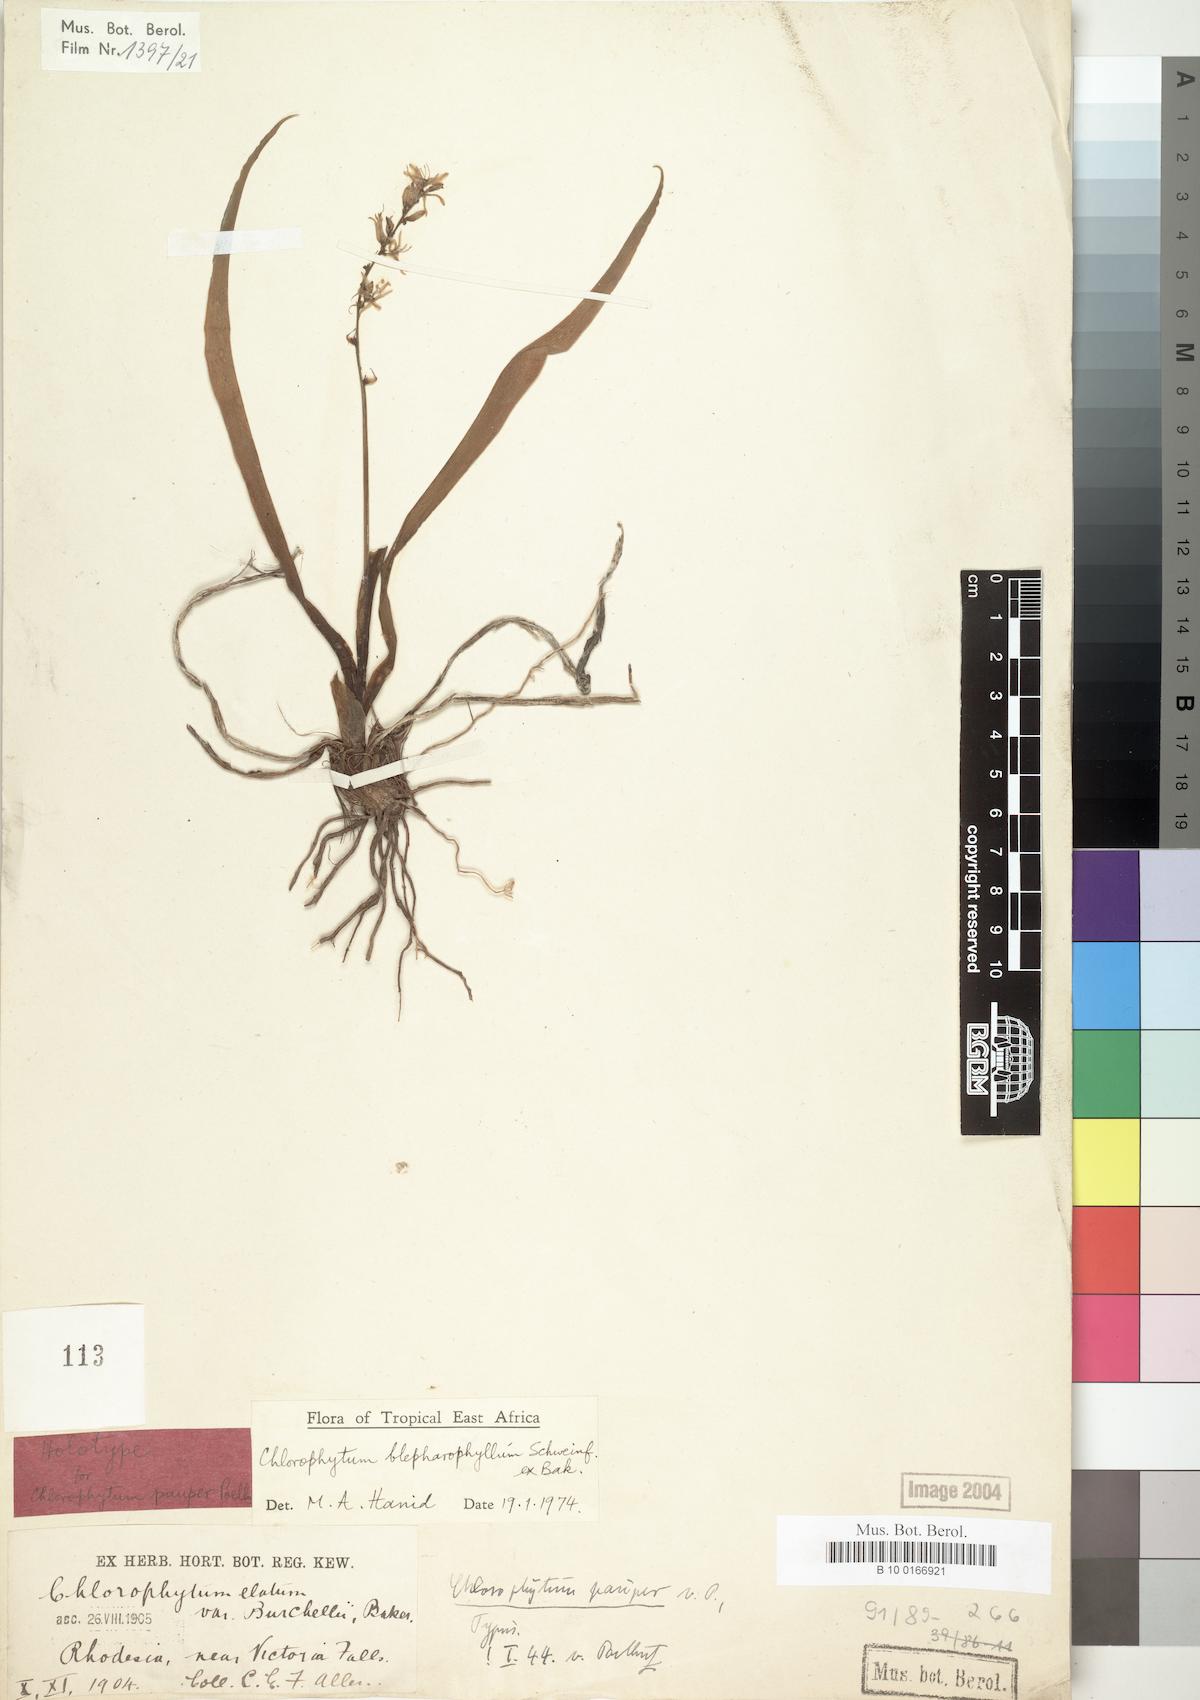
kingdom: Plantae
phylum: Tracheophyta
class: Liliopsida
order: Asparagales
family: Asparagaceae
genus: Chlorophytum
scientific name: Chlorophytum blepharophyllum
